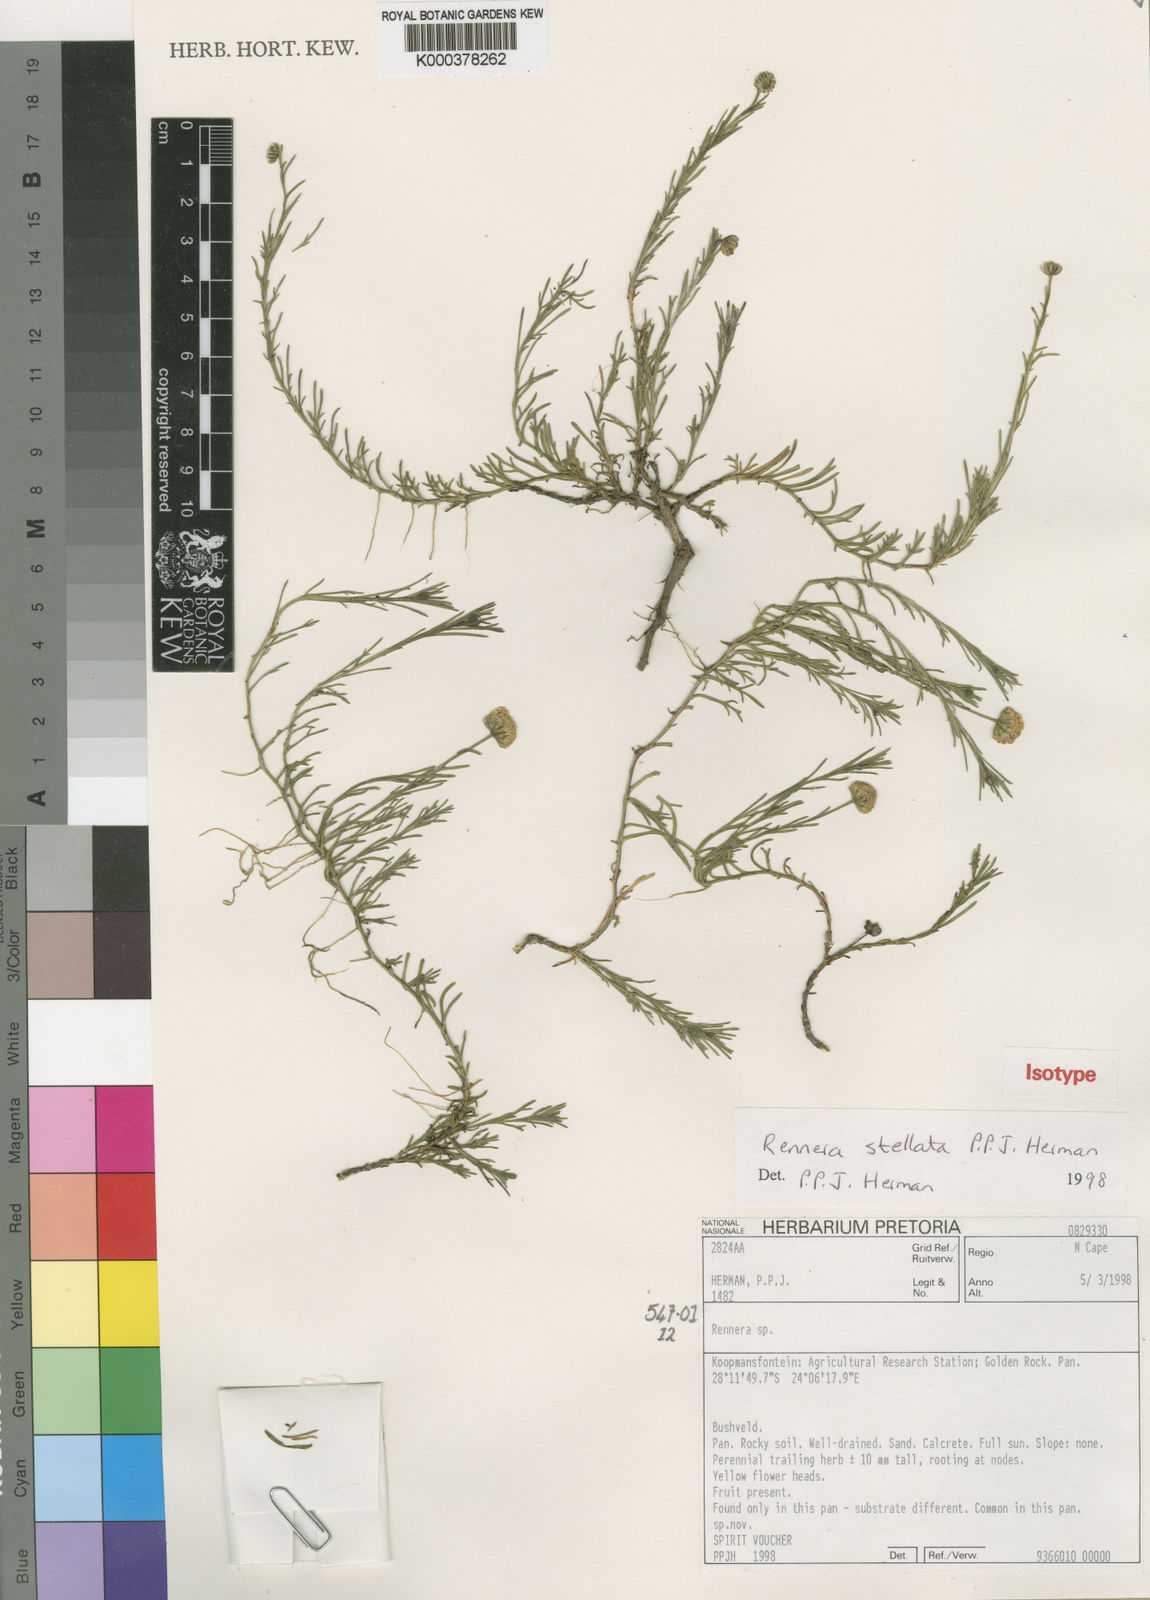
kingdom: Plantae
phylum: Tracheophyta
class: Magnoliopsida
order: Asterales
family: Asteraceae
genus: Pentzia
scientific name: Pentzia stellata
